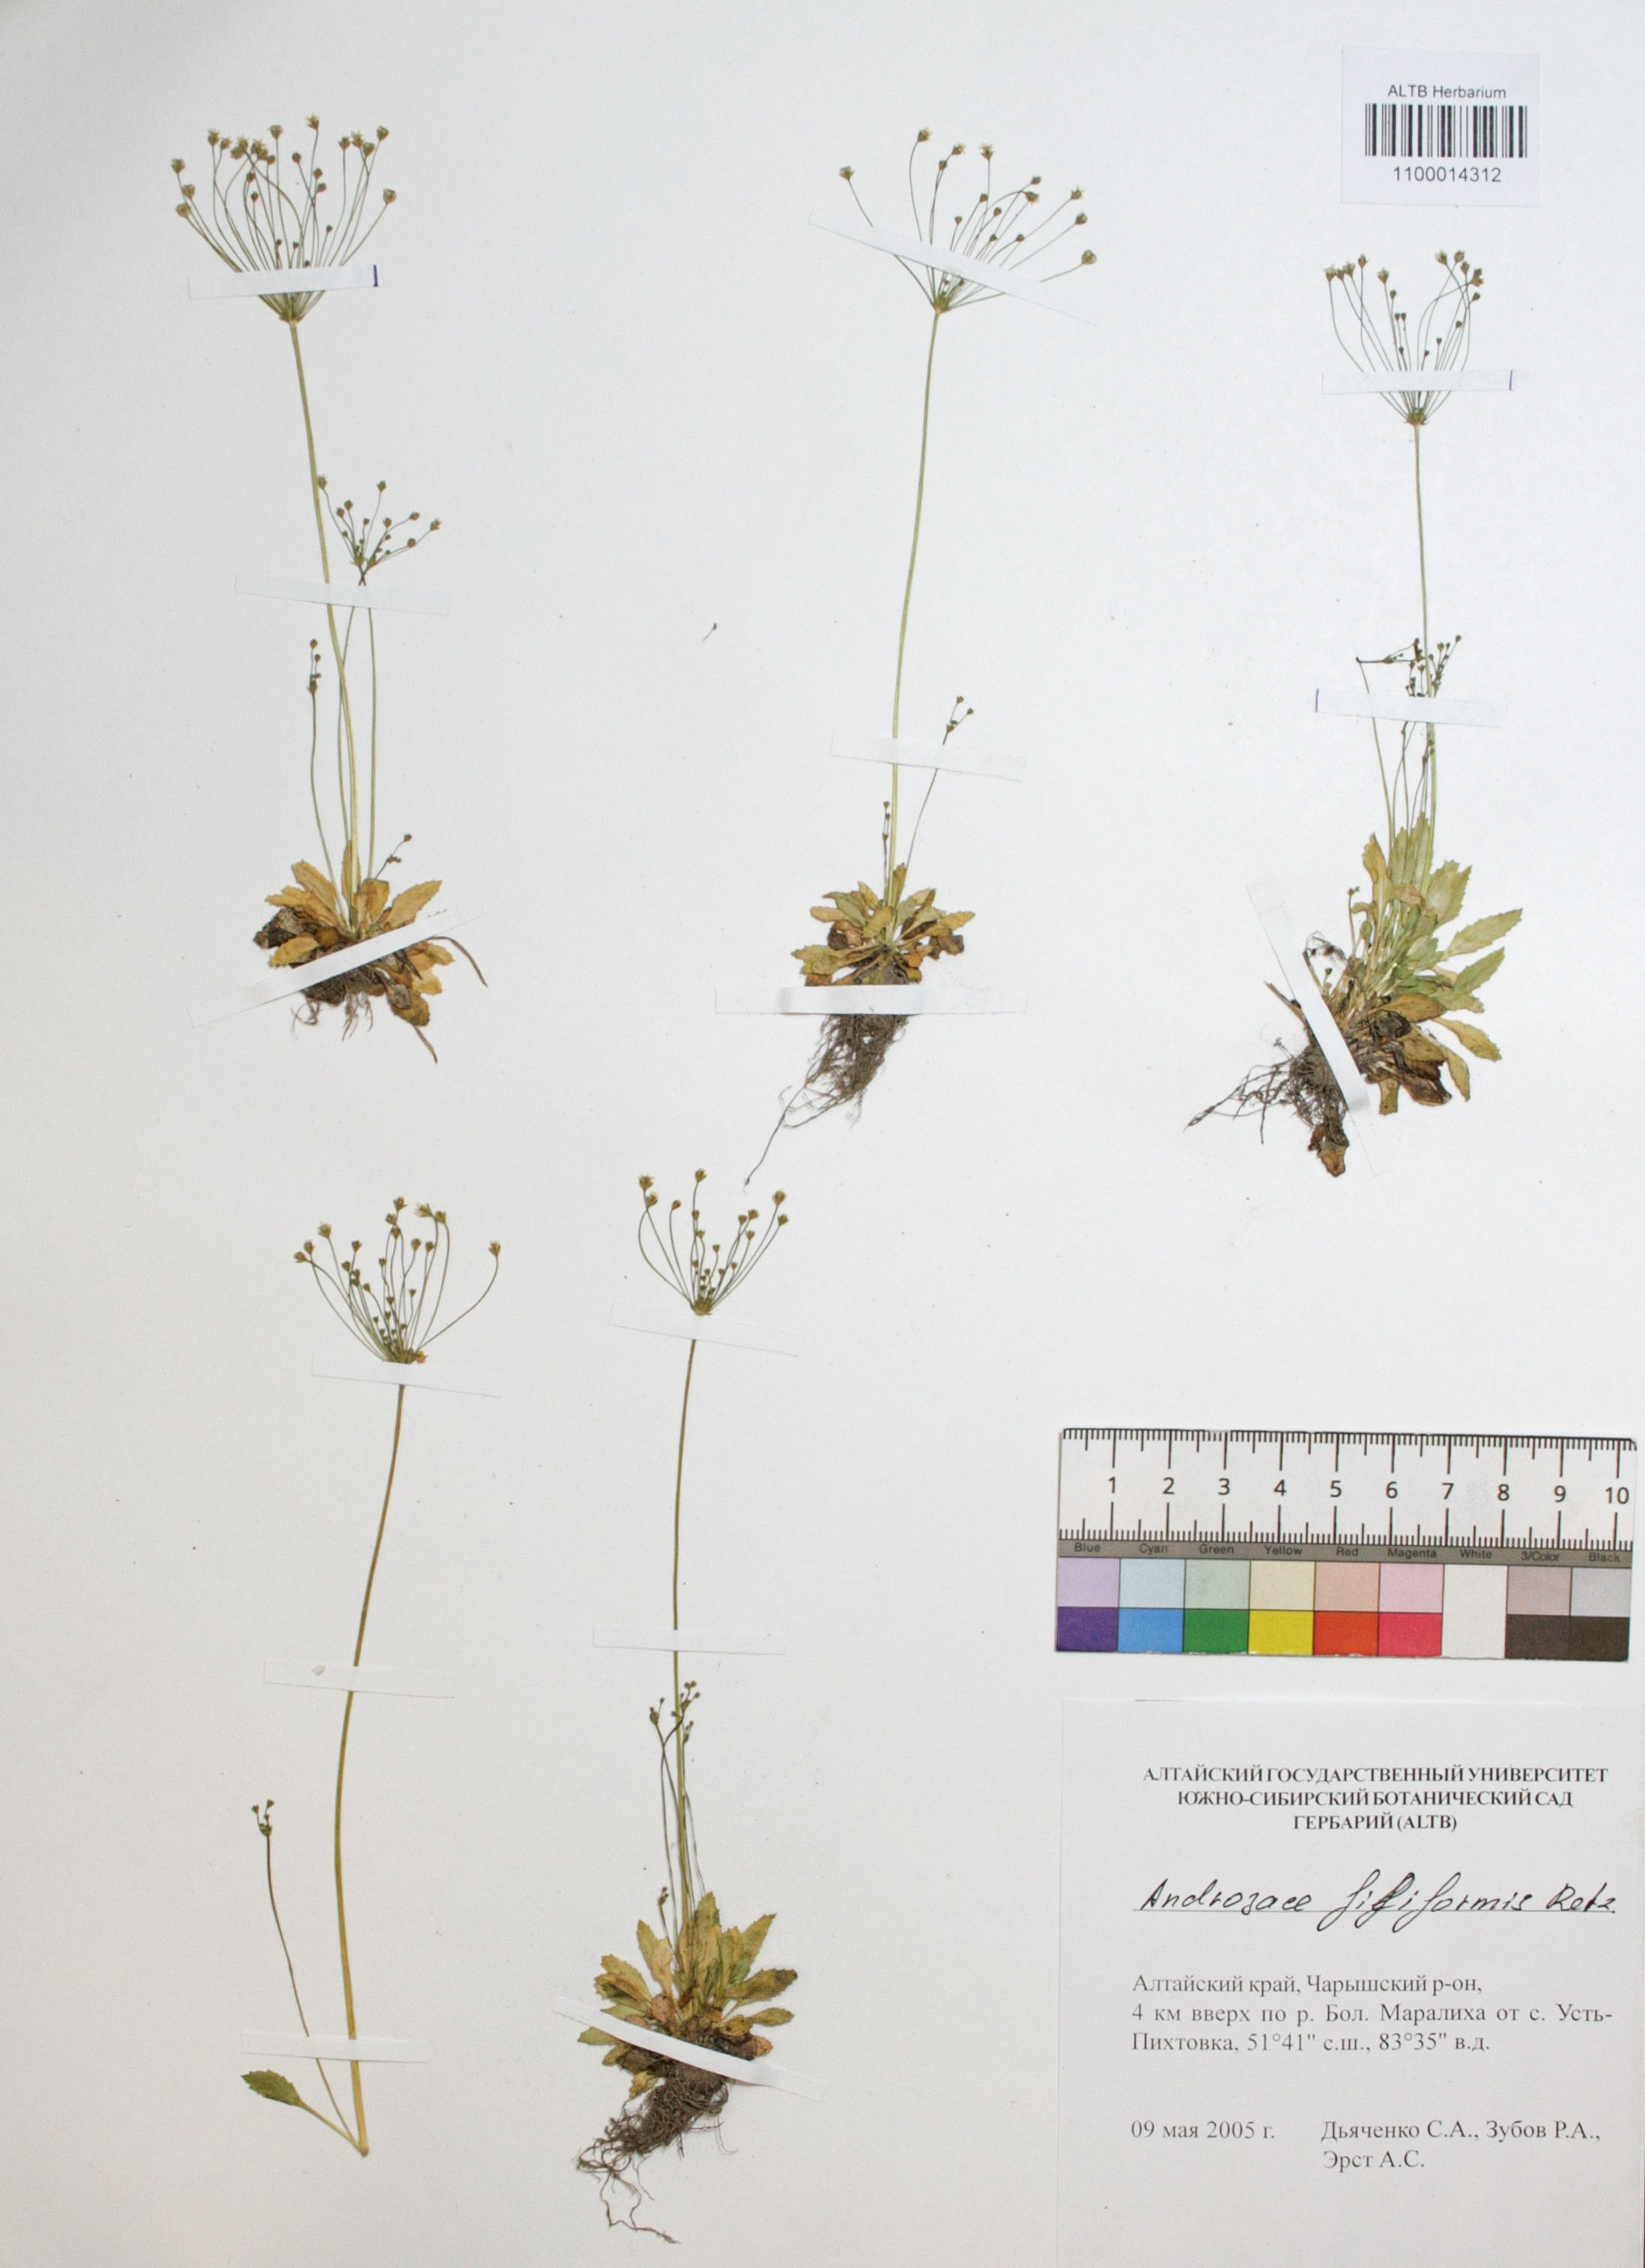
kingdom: Plantae
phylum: Tracheophyta
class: Magnoliopsida
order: Ericales
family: Primulaceae
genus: Androsace
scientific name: Androsace filiformis
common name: Filiform rock jasmine
